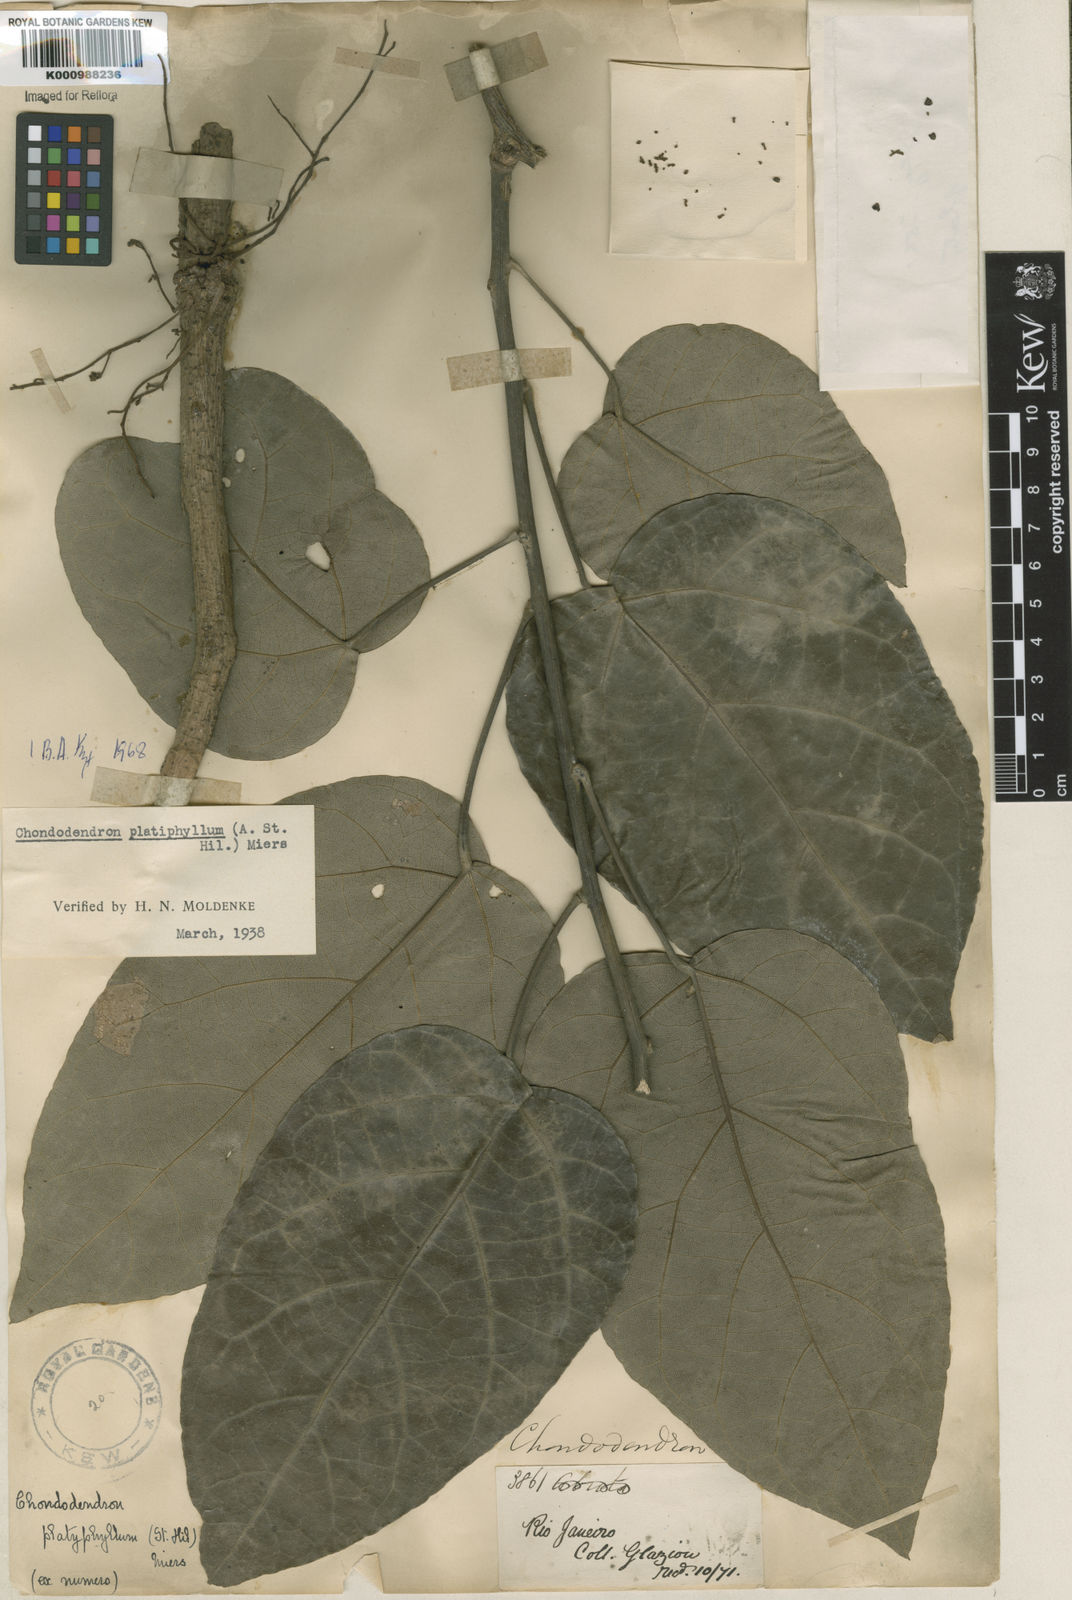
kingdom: Plantae
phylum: Tracheophyta
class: Magnoliopsida
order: Ranunculales
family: Menispermaceae
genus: Chondrodendron
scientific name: Chondrodendron platyphyllum
